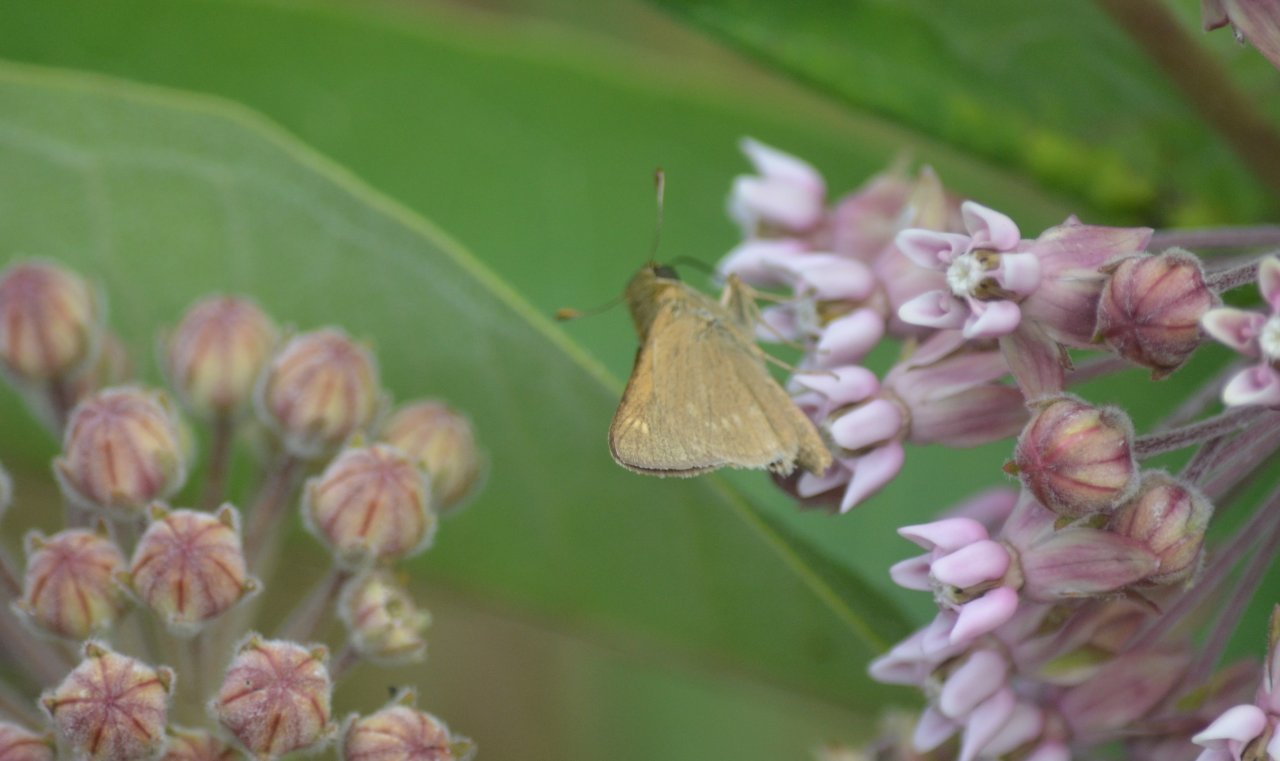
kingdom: Animalia
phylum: Arthropoda
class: Insecta
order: Lepidoptera
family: Hesperiidae
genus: Polites
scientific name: Polites
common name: Crossline Skipper
